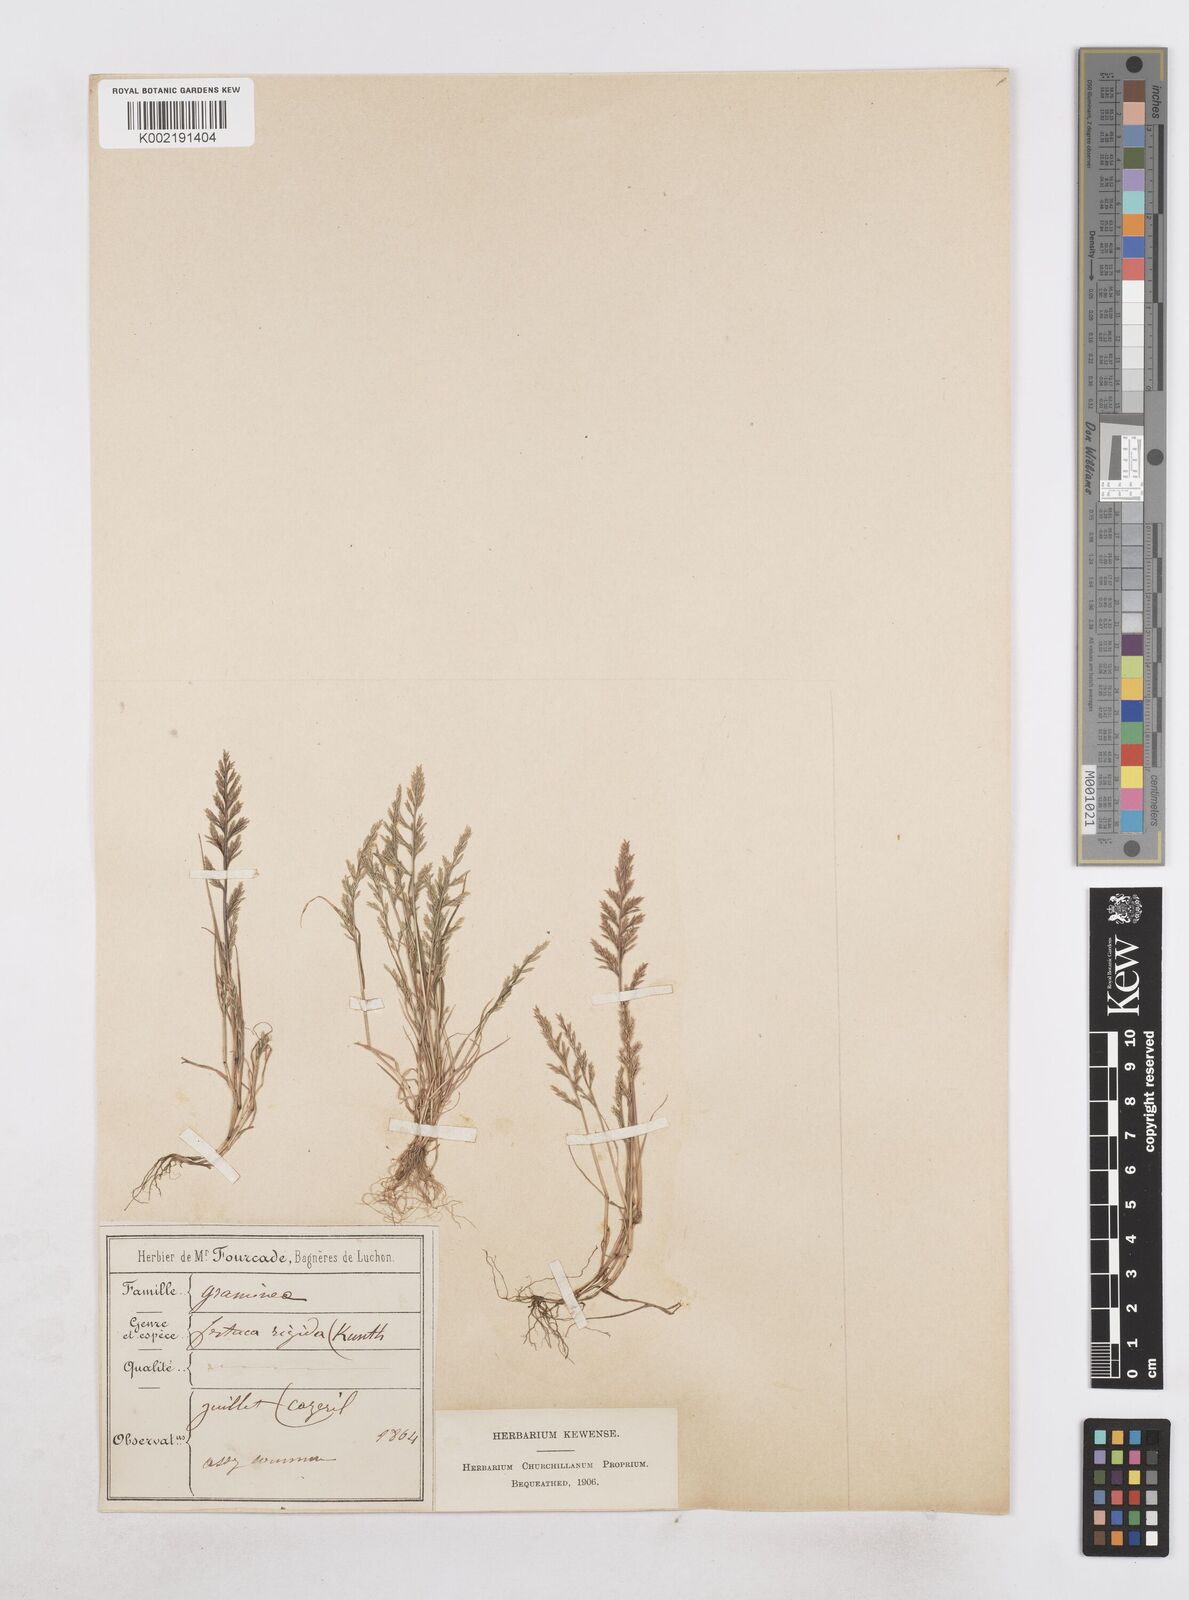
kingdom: Plantae
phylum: Tracheophyta
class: Liliopsida
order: Poales
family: Poaceae
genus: Catapodium
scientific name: Catapodium rigidum
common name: Fern-grass
